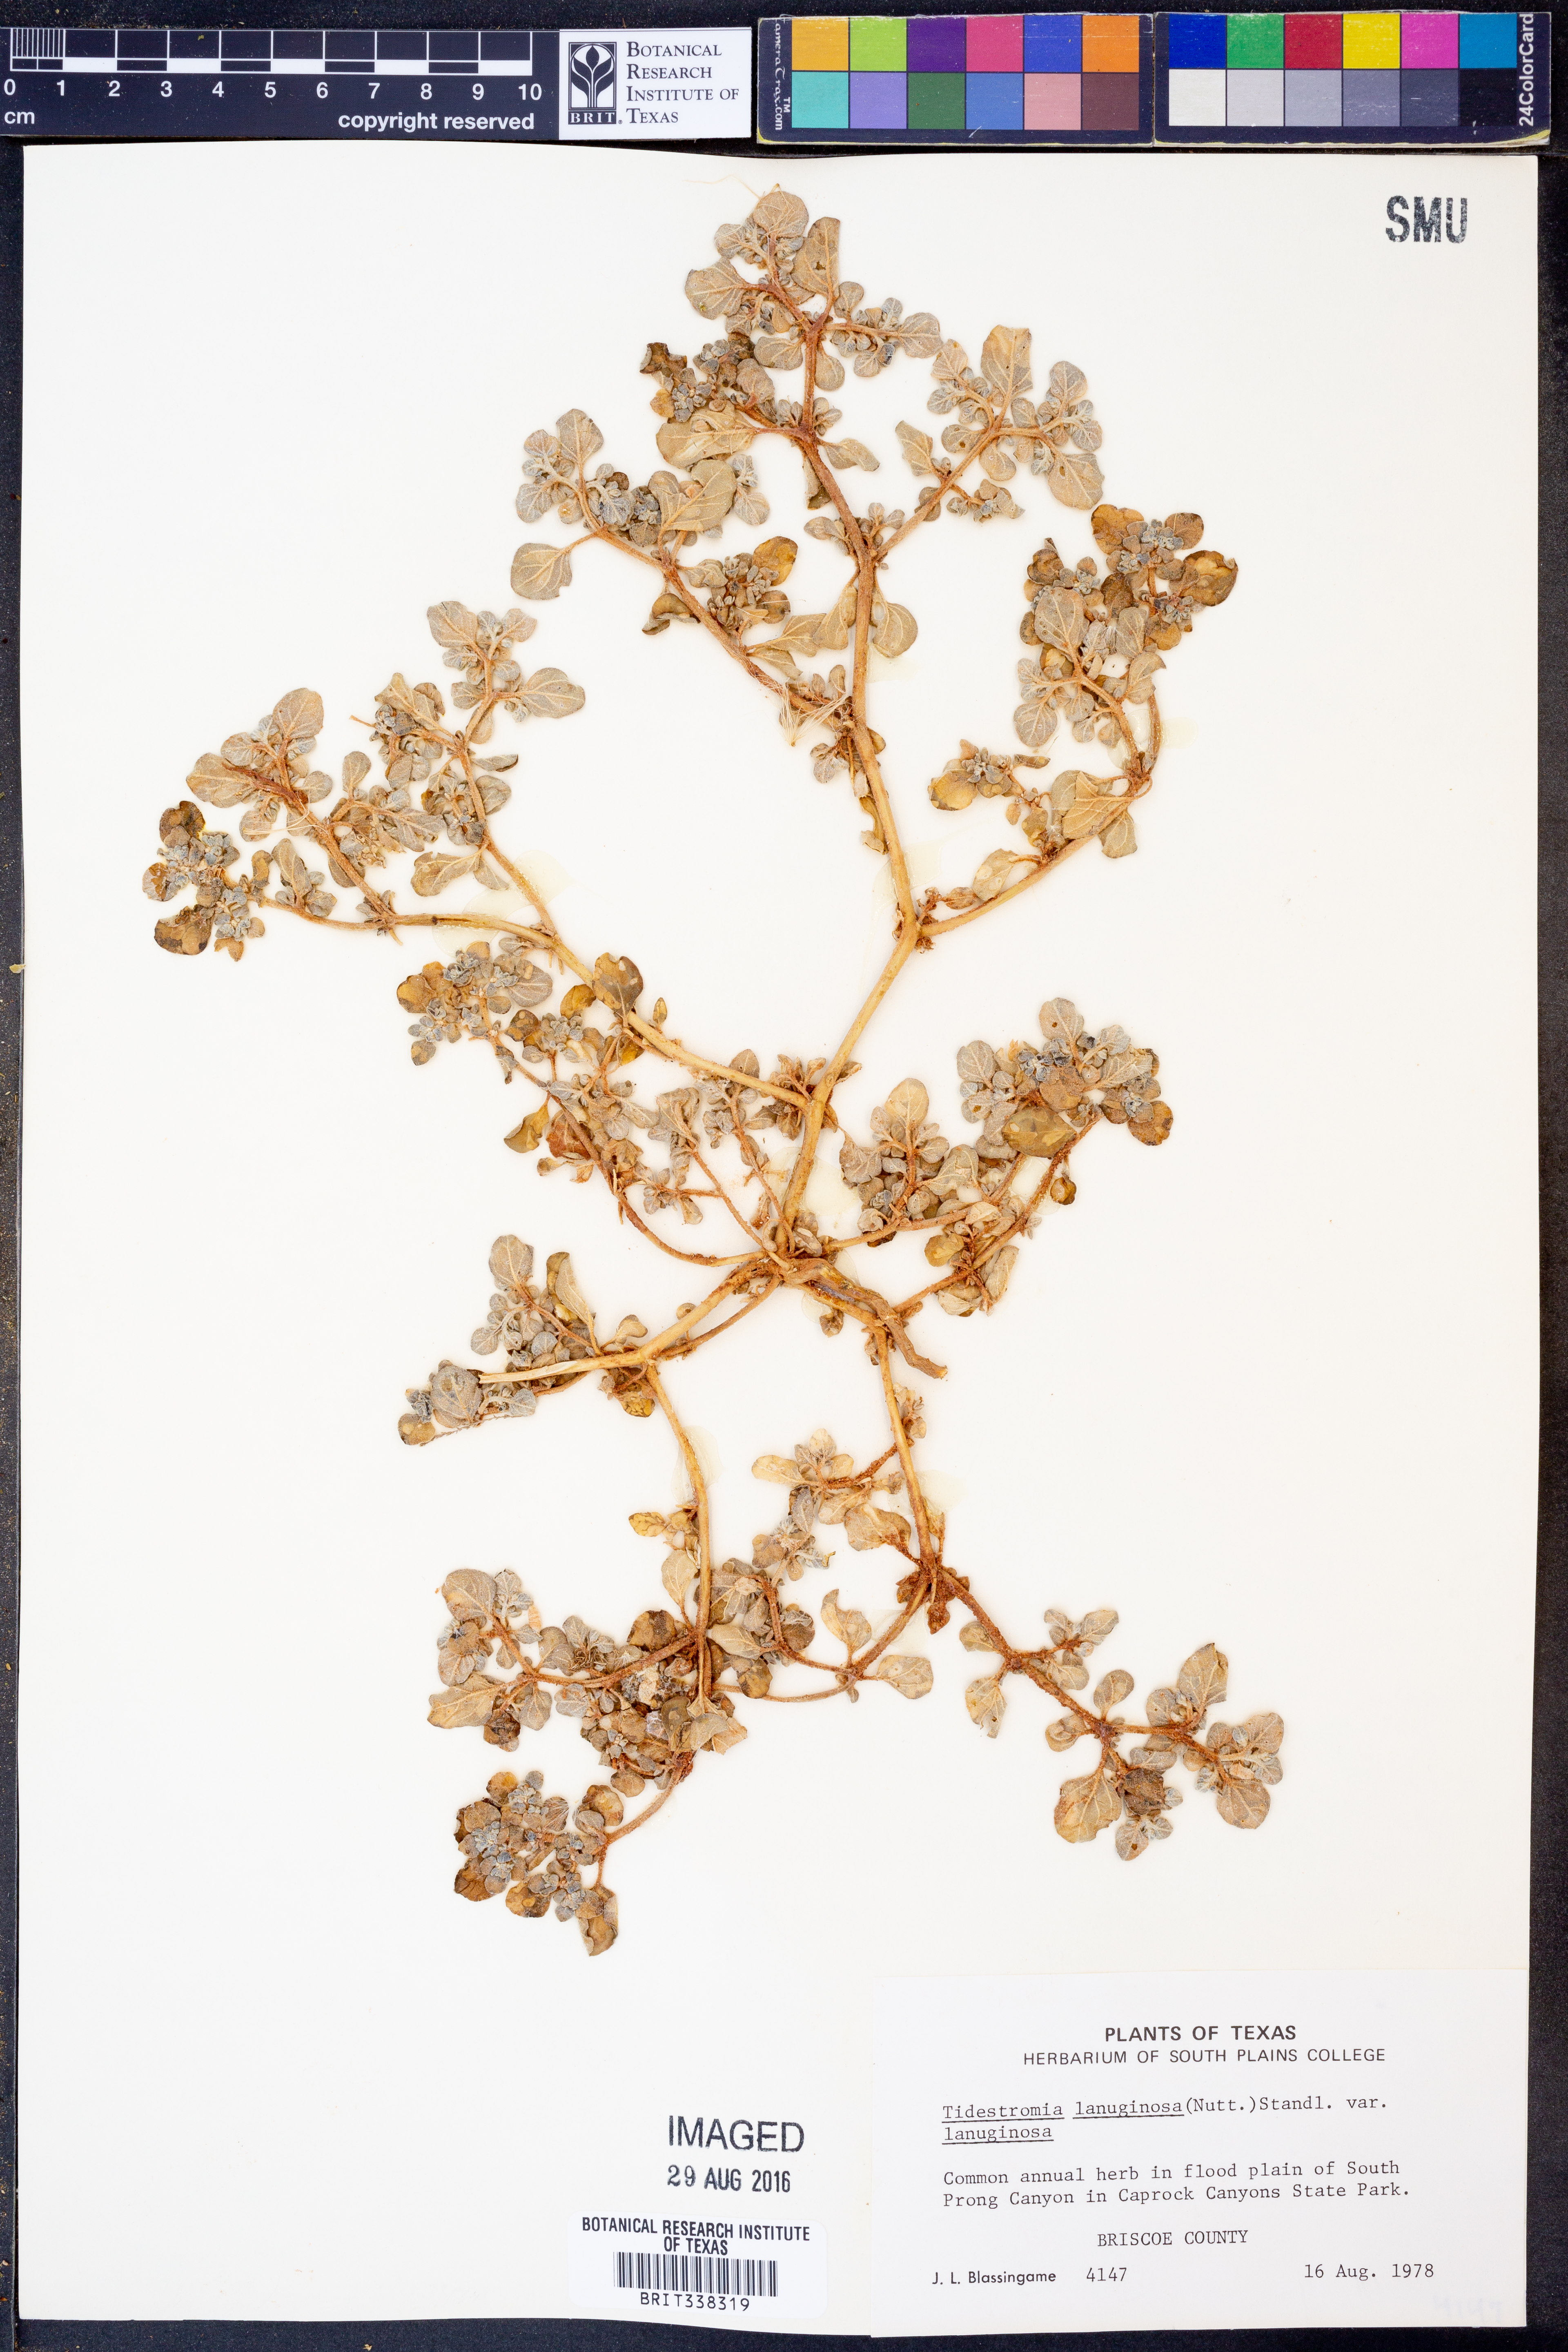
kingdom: Plantae
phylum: Tracheophyta
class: Magnoliopsida
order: Caryophyllales
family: Amaranthaceae
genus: Tidestromia
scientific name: Tidestromia lanuginosa
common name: Woolly tidestromia
